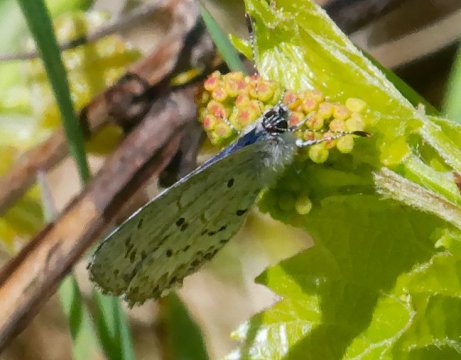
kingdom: Animalia
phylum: Arthropoda
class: Insecta
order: Lepidoptera
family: Lycaenidae
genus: Celastrina
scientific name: Celastrina lucia
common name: Northern Spring Azure
